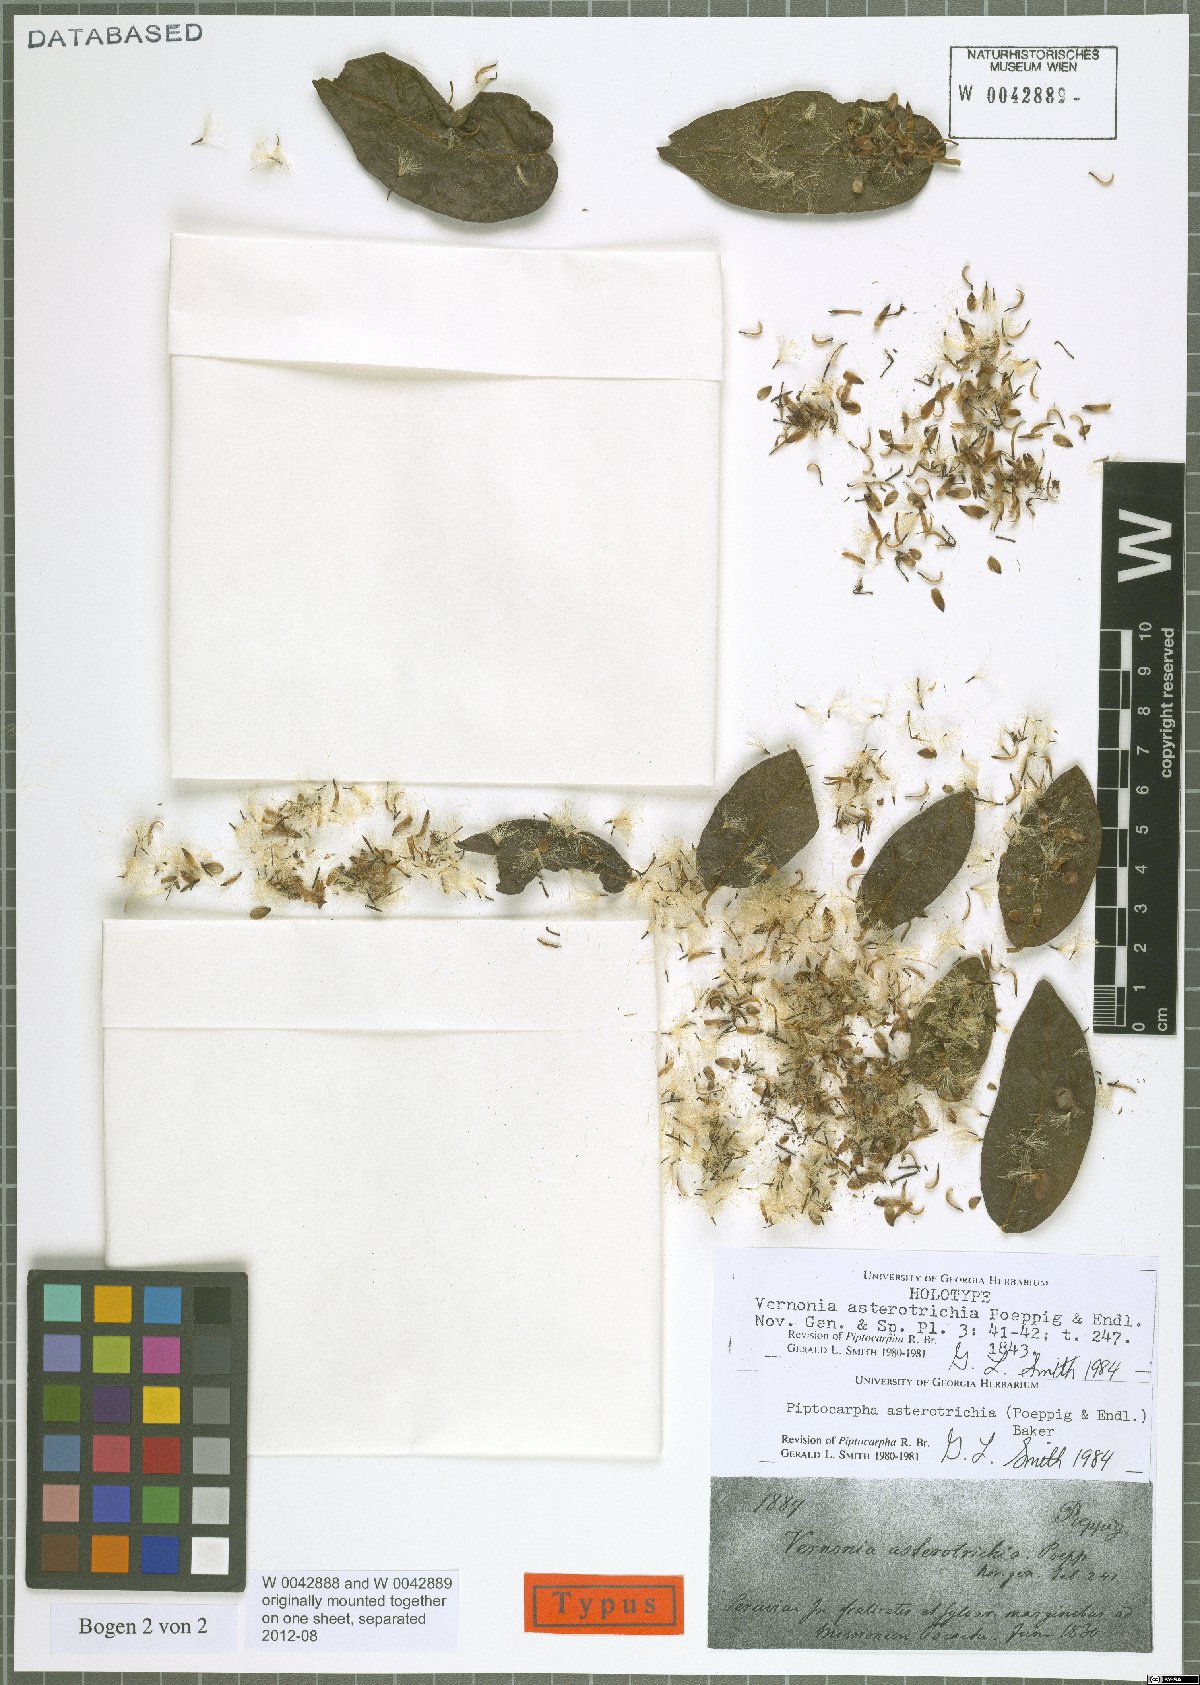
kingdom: Plantae
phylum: Tracheophyta
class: Magnoliopsida
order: Asterales
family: Asteraceae
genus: Piptocarpha
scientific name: Piptocarpha asterotrichia
